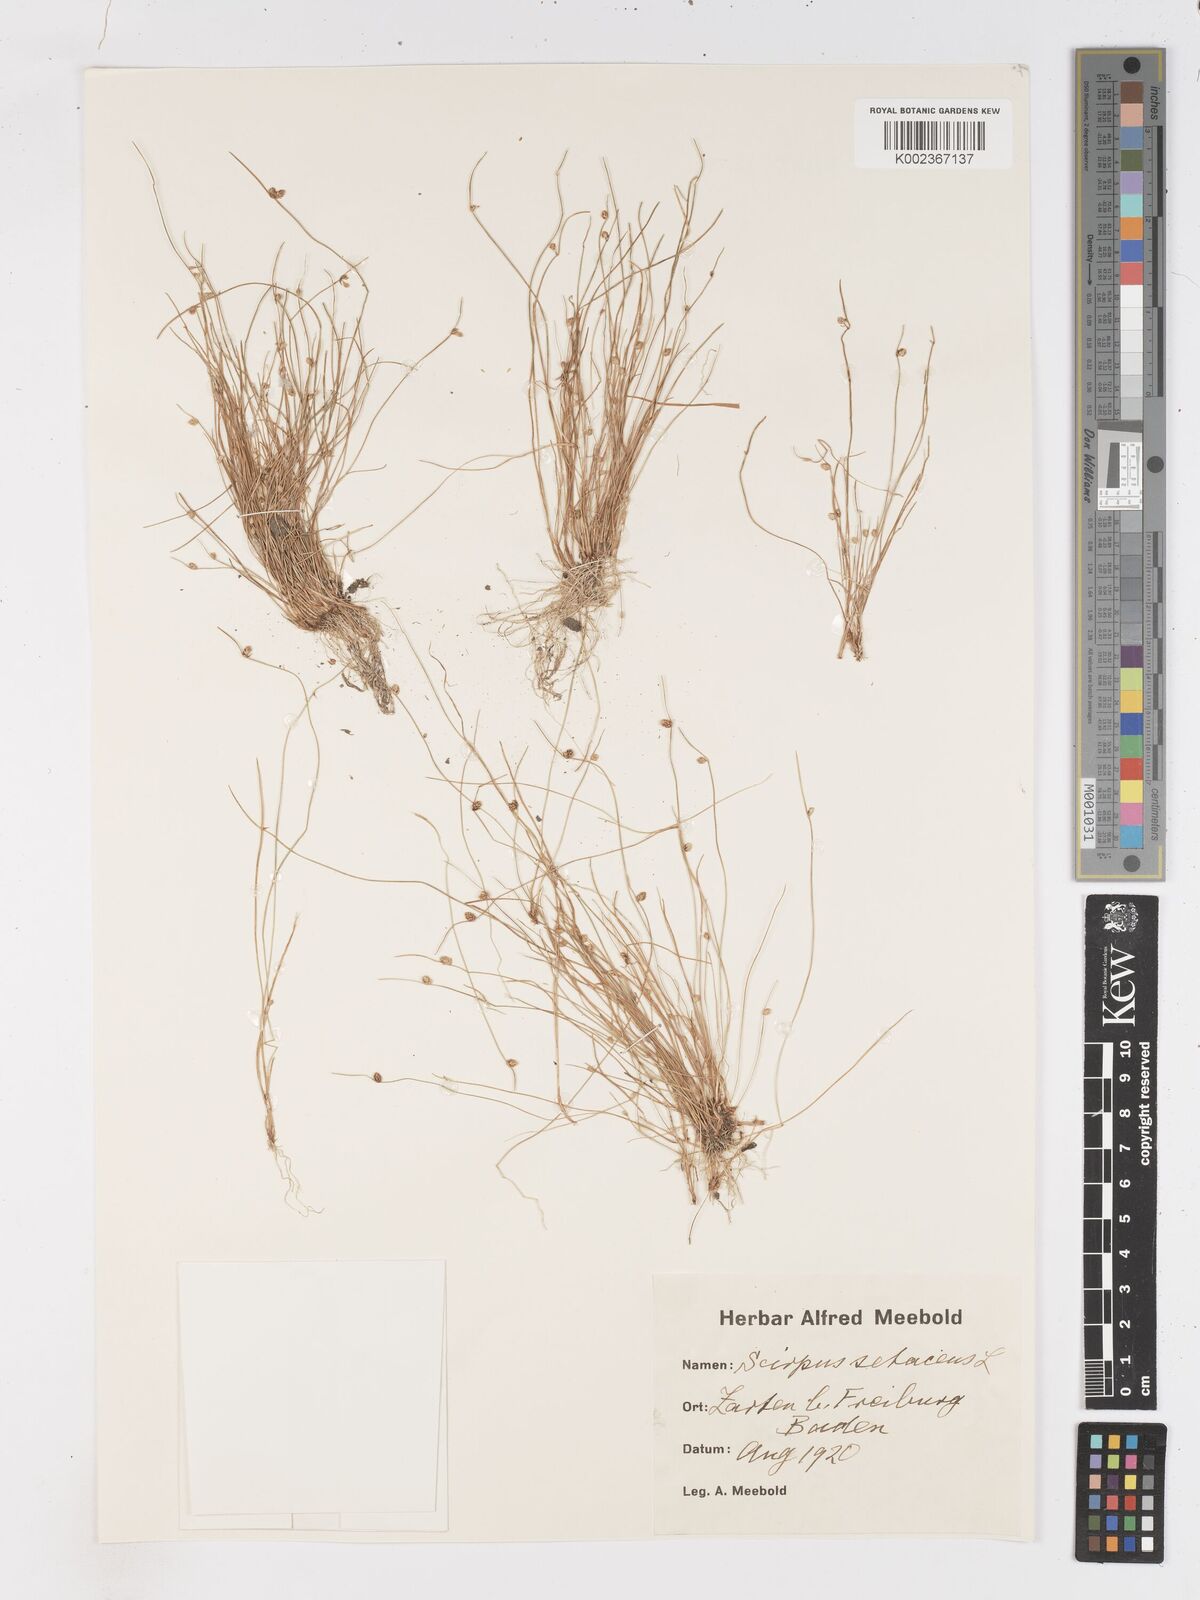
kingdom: Plantae
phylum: Tracheophyta
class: Liliopsida
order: Poales
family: Cyperaceae
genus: Isolepis
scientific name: Isolepis setacea
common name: Bristle club-rush
